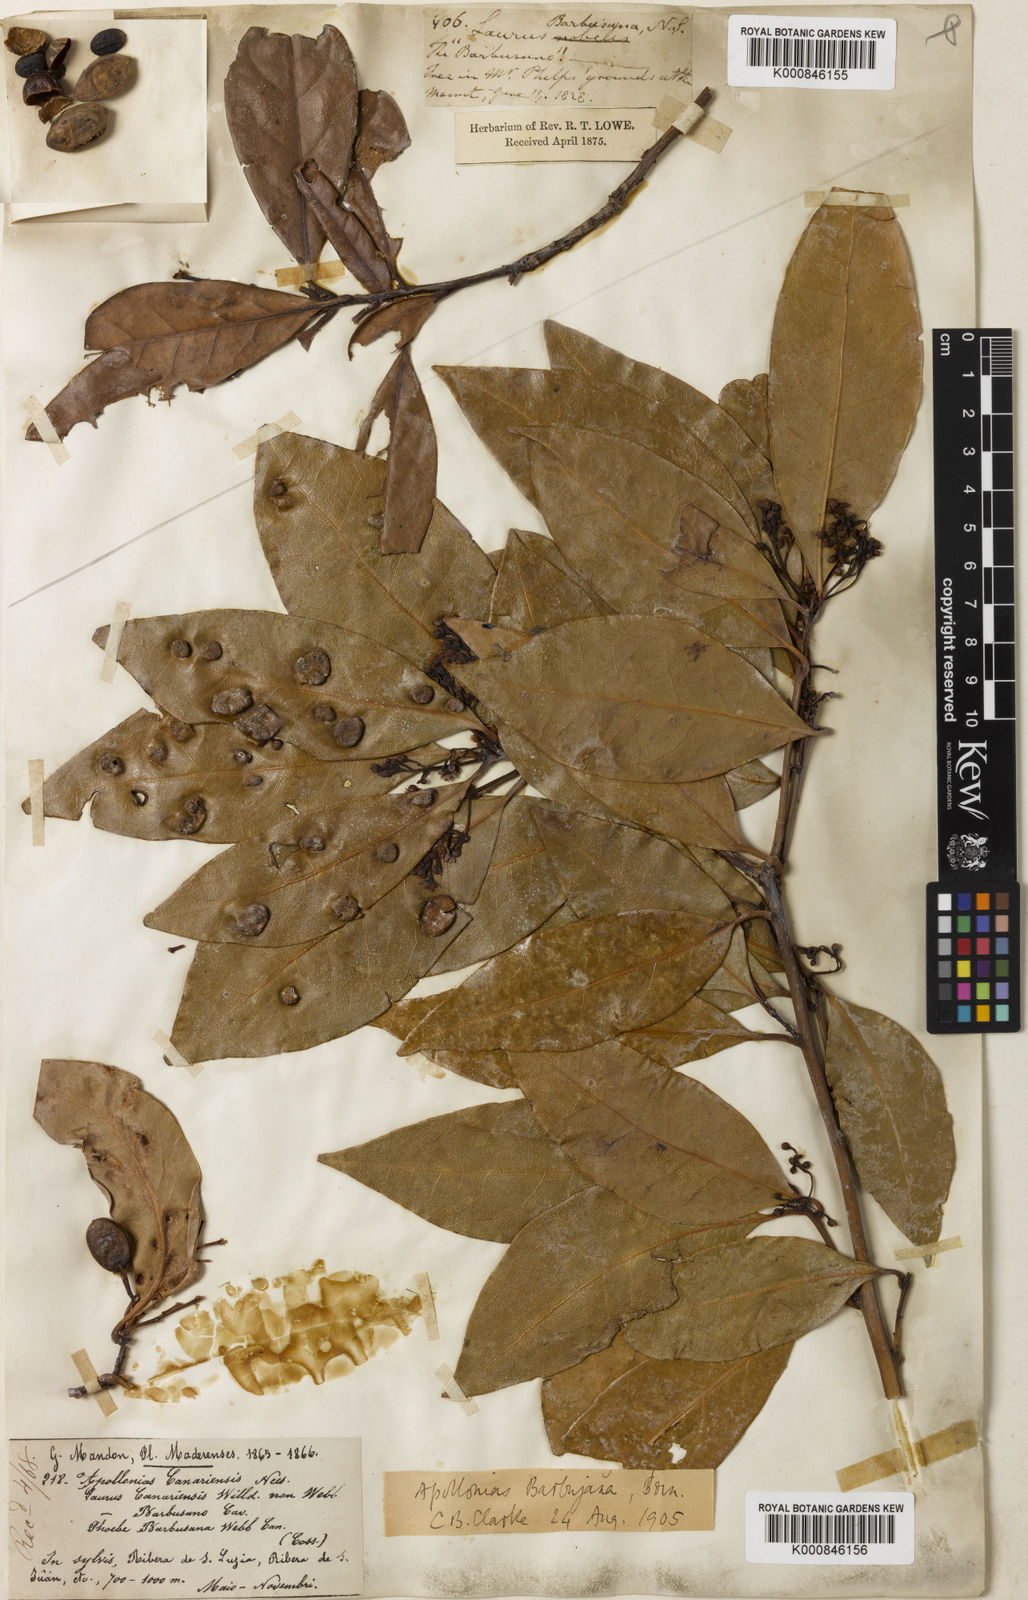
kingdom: Plantae
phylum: Tracheophyta
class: Magnoliopsida
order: Laurales
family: Lauraceae
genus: Apollonias
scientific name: Apollonias barbujana
